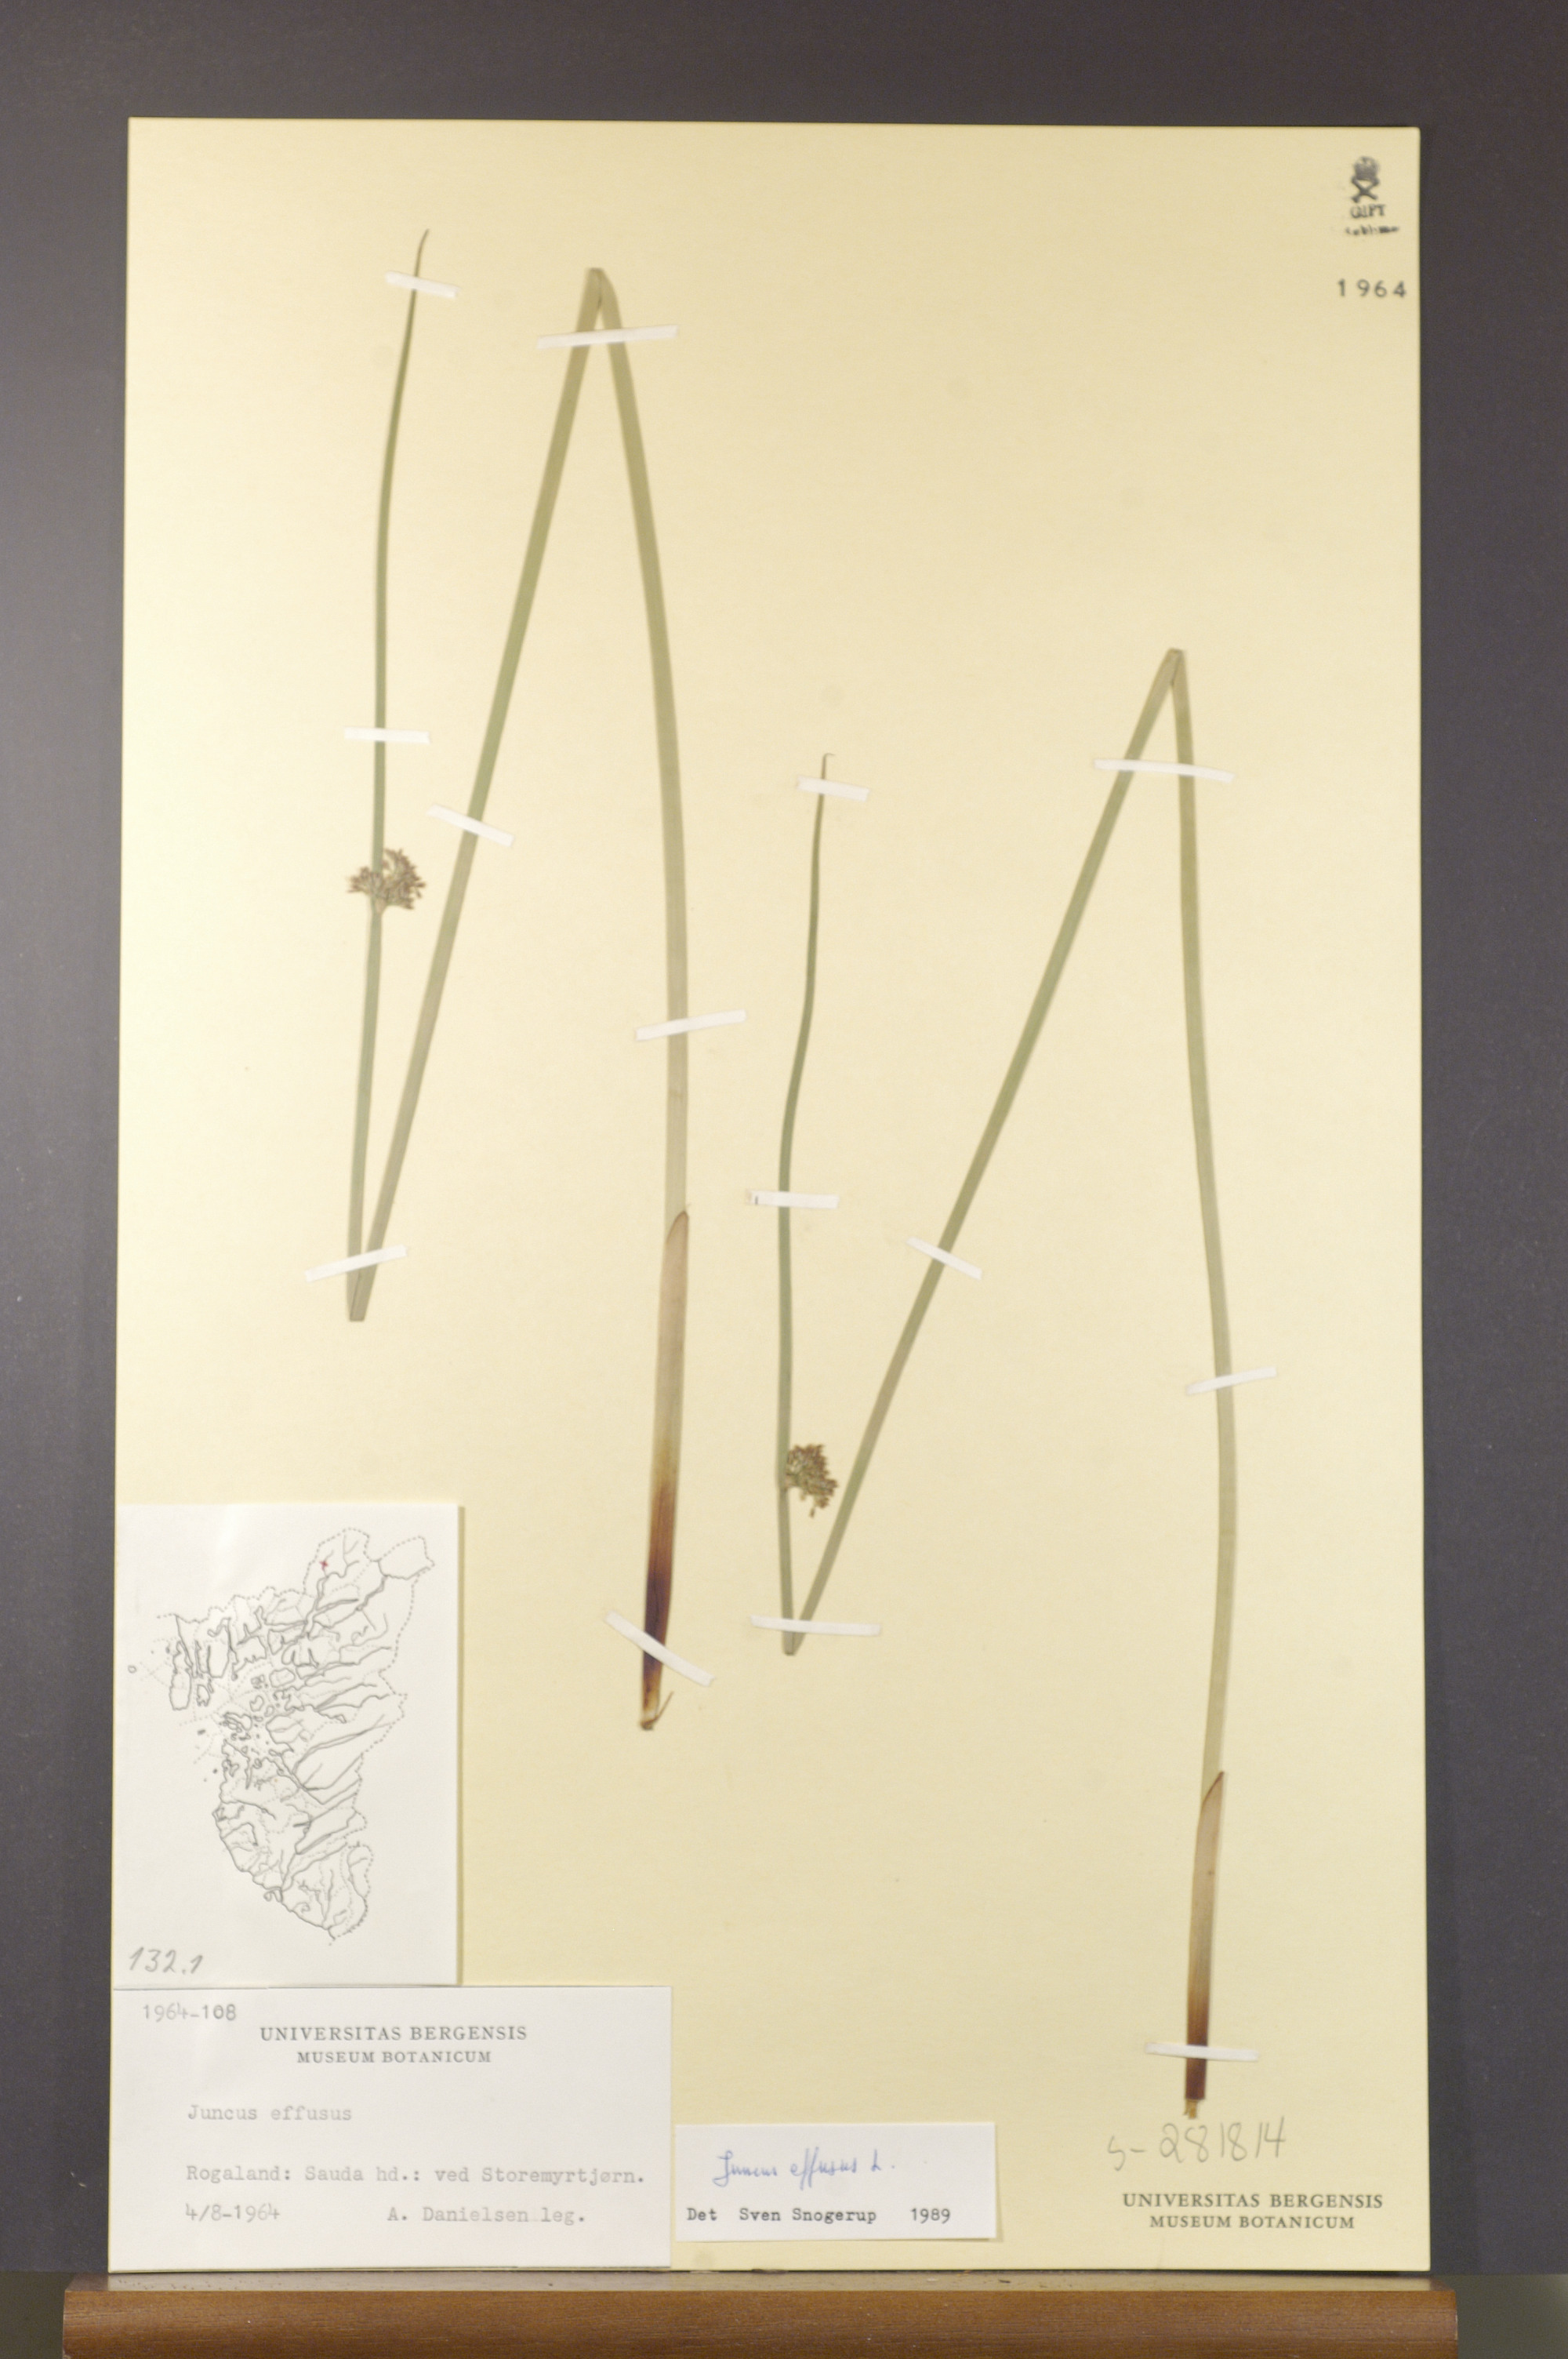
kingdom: Plantae
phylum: Tracheophyta
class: Liliopsida
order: Poales
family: Juncaceae
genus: Juncus
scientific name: Juncus effusus
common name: Soft rush
